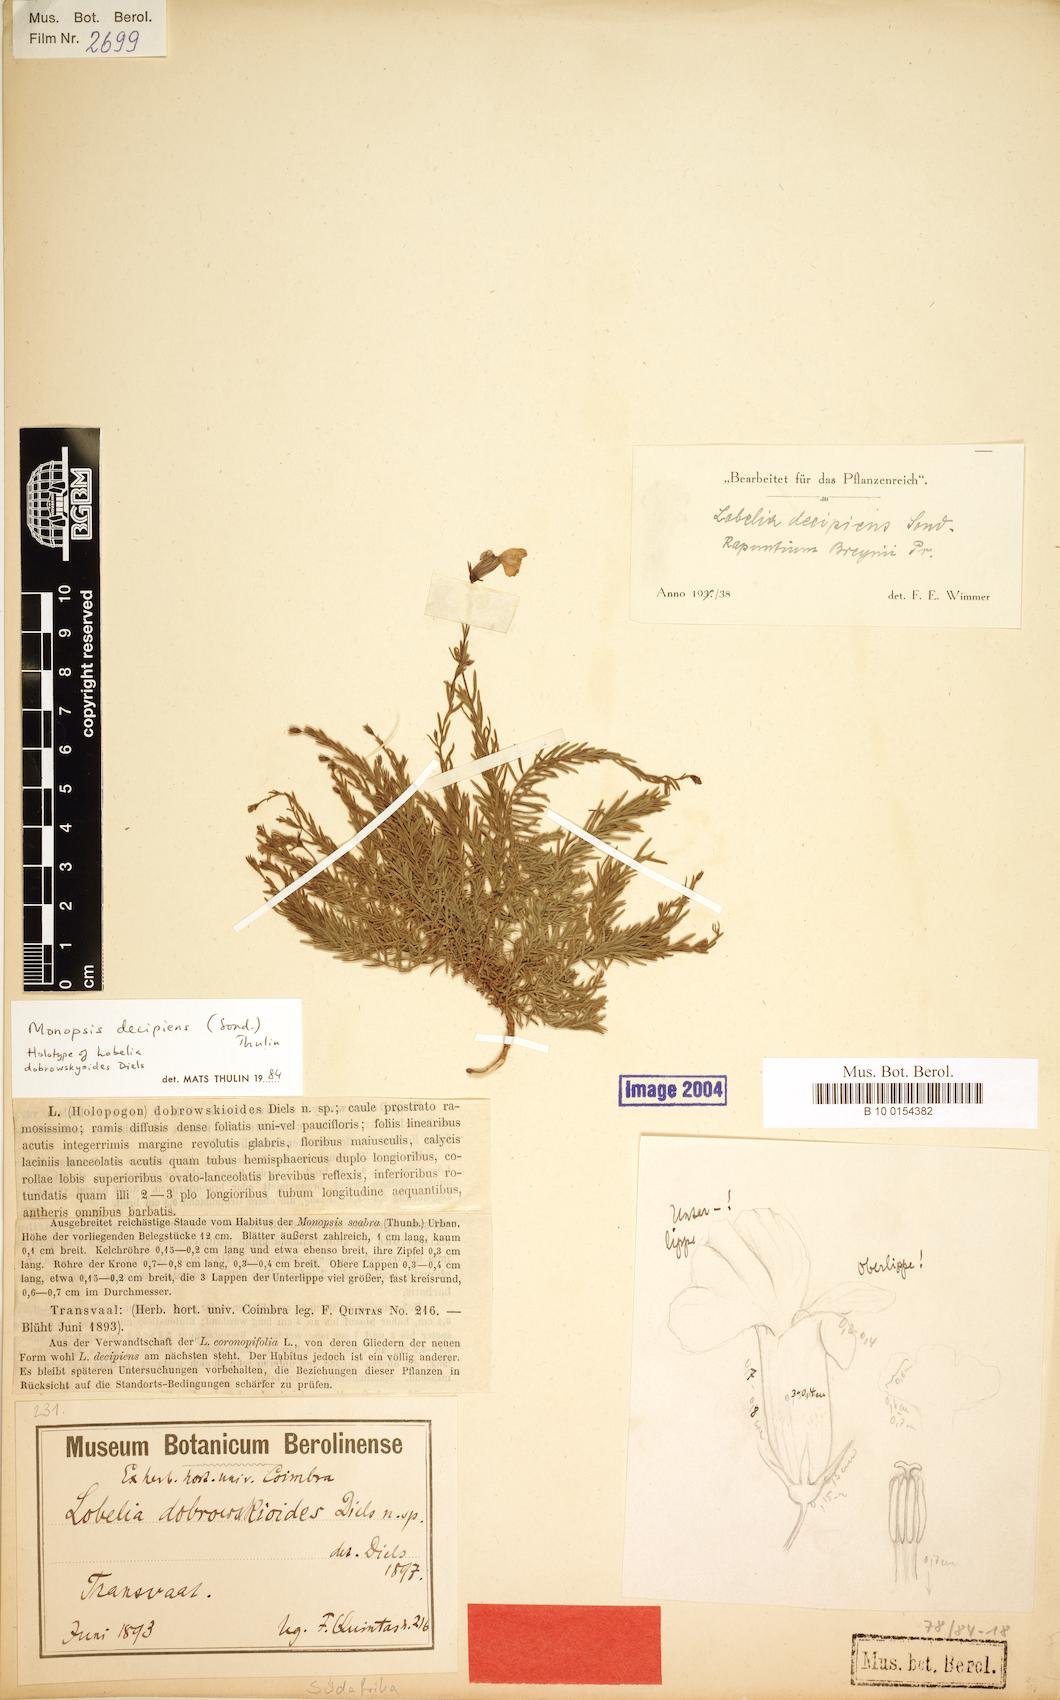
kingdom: Plantae
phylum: Tracheophyta
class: Magnoliopsida
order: Asterales
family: Campanulaceae
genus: Monopsis
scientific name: Monopsis decipiens
